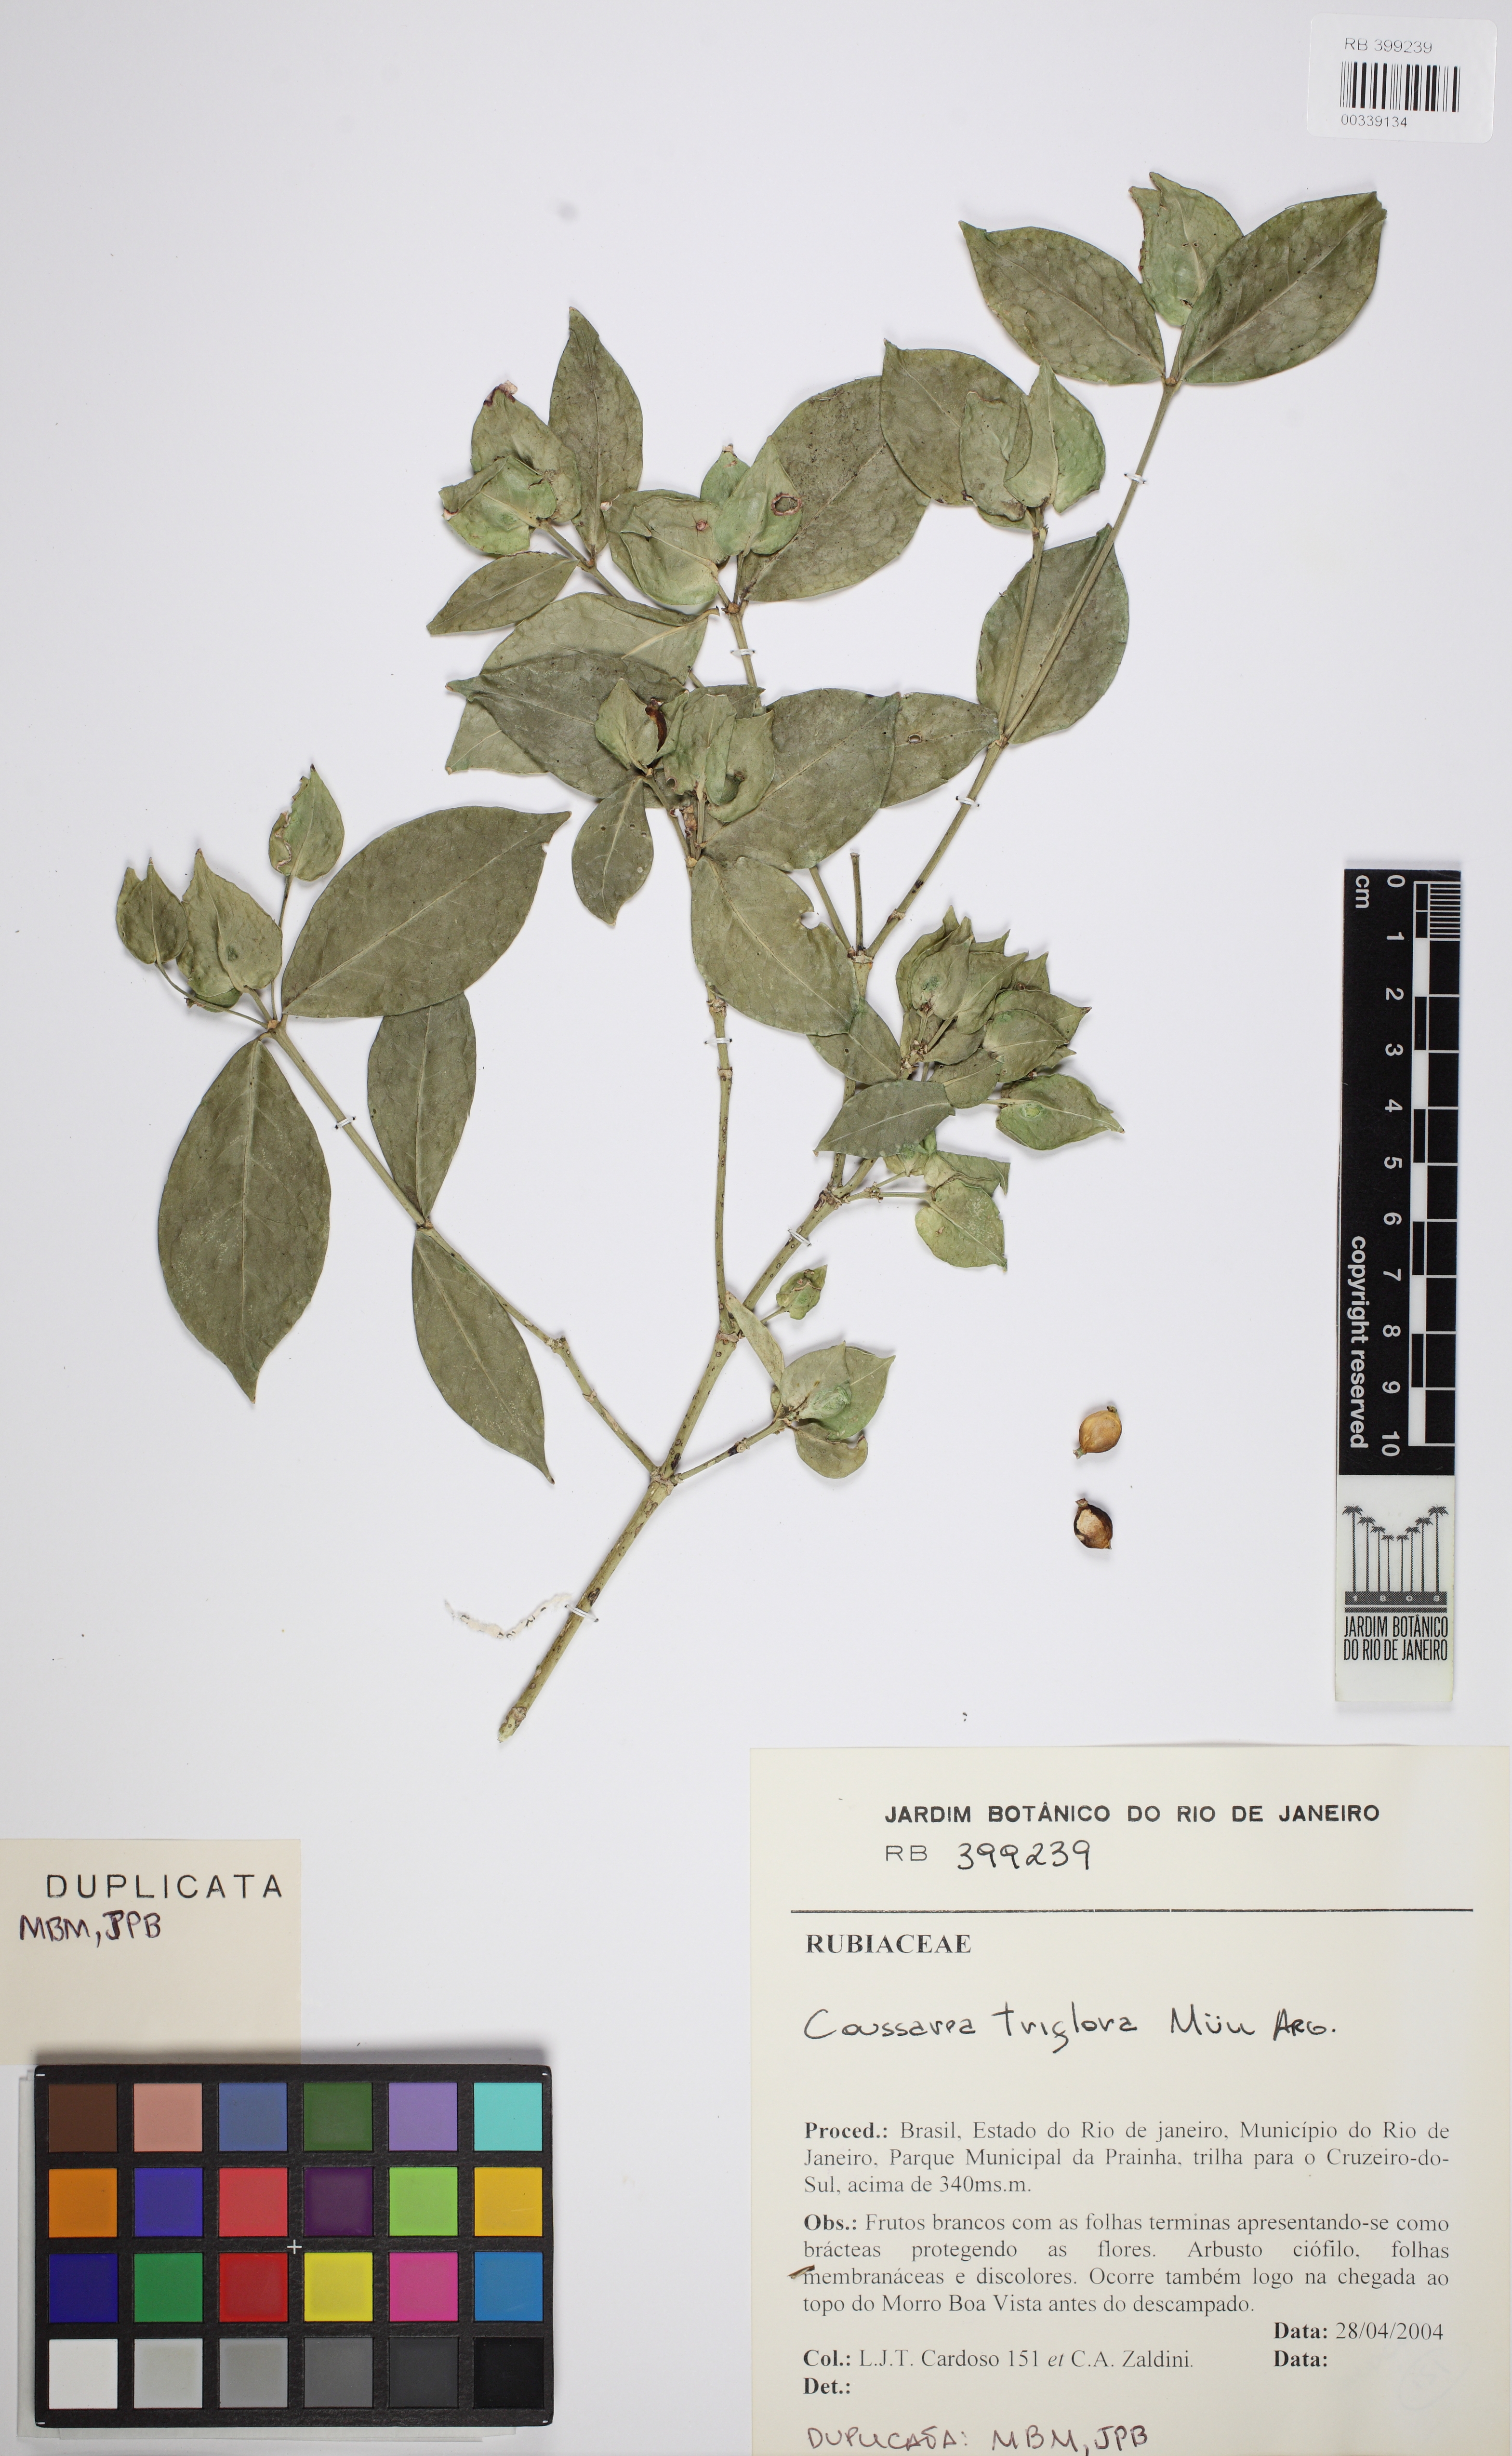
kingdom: Plantae
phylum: Tracheophyta
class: Magnoliopsida
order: Gentianales
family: Rubiaceae
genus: Coussarea
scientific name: Coussarea triflora
